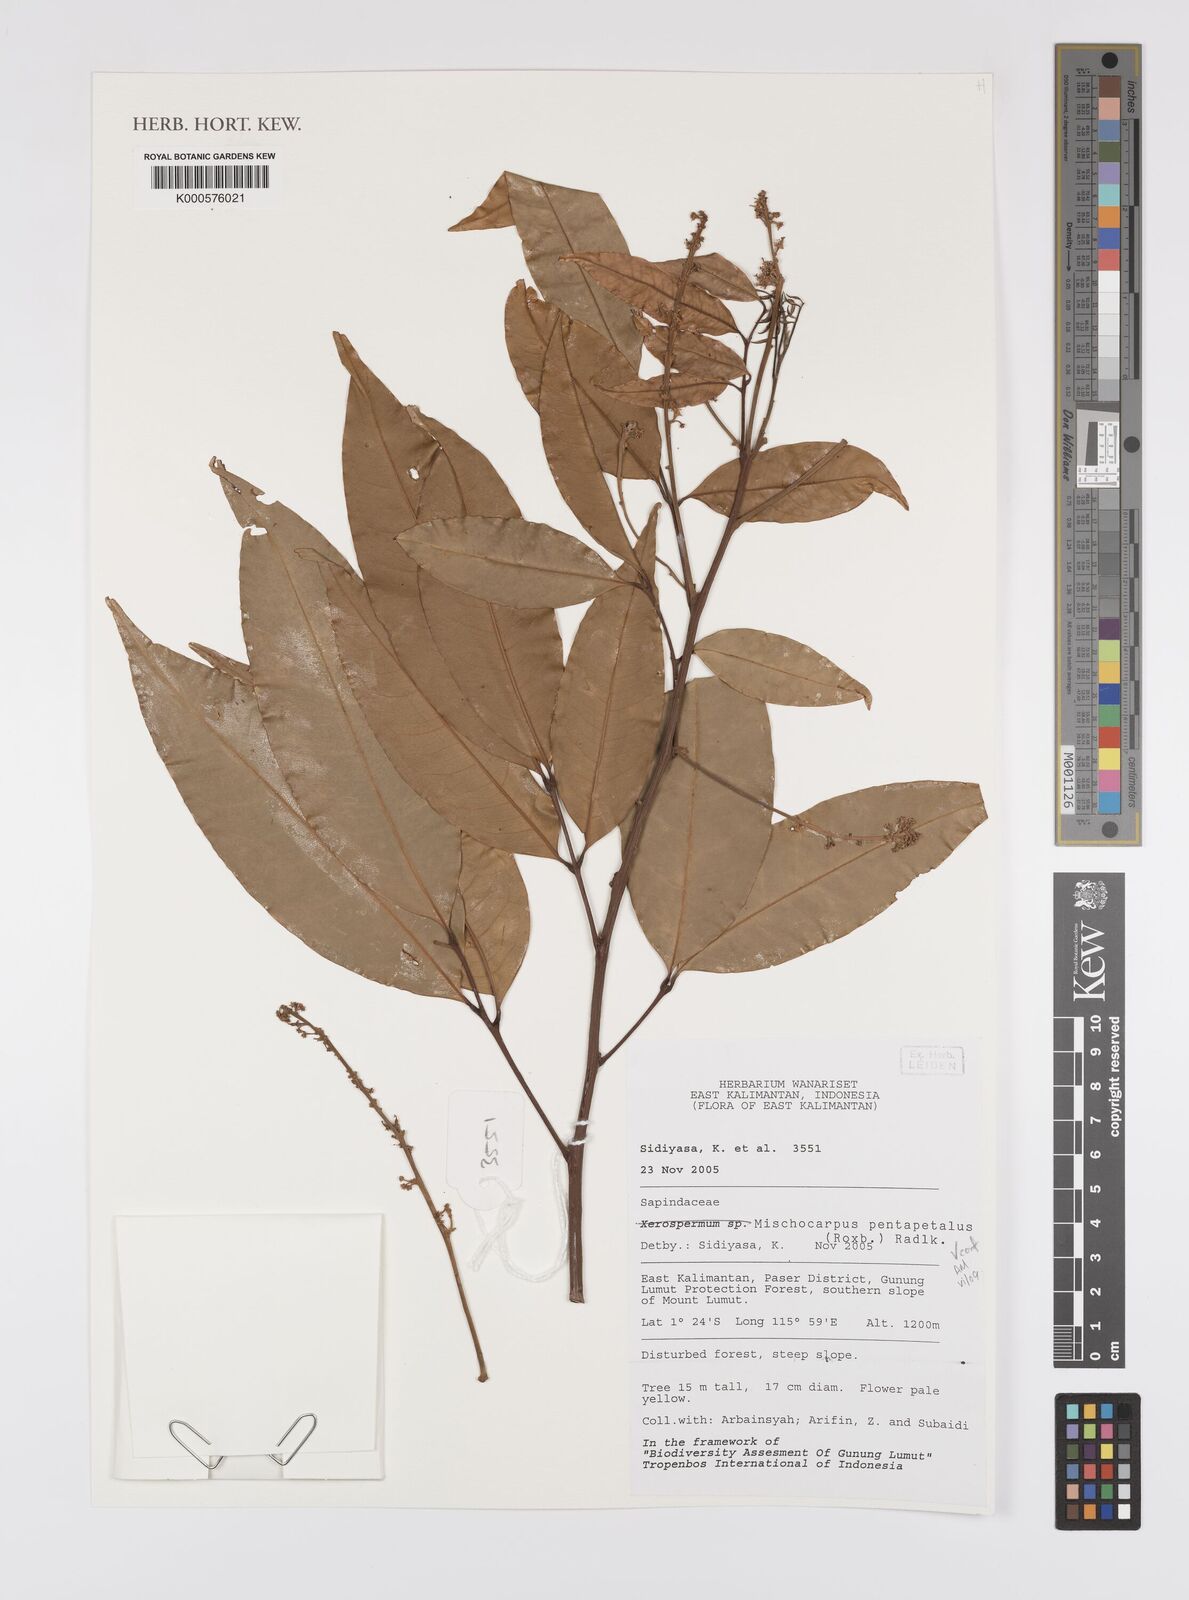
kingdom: Plantae
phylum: Tracheophyta
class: Magnoliopsida
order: Sapindales
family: Sapindaceae
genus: Mischocarpus
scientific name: Mischocarpus pentapetalus
